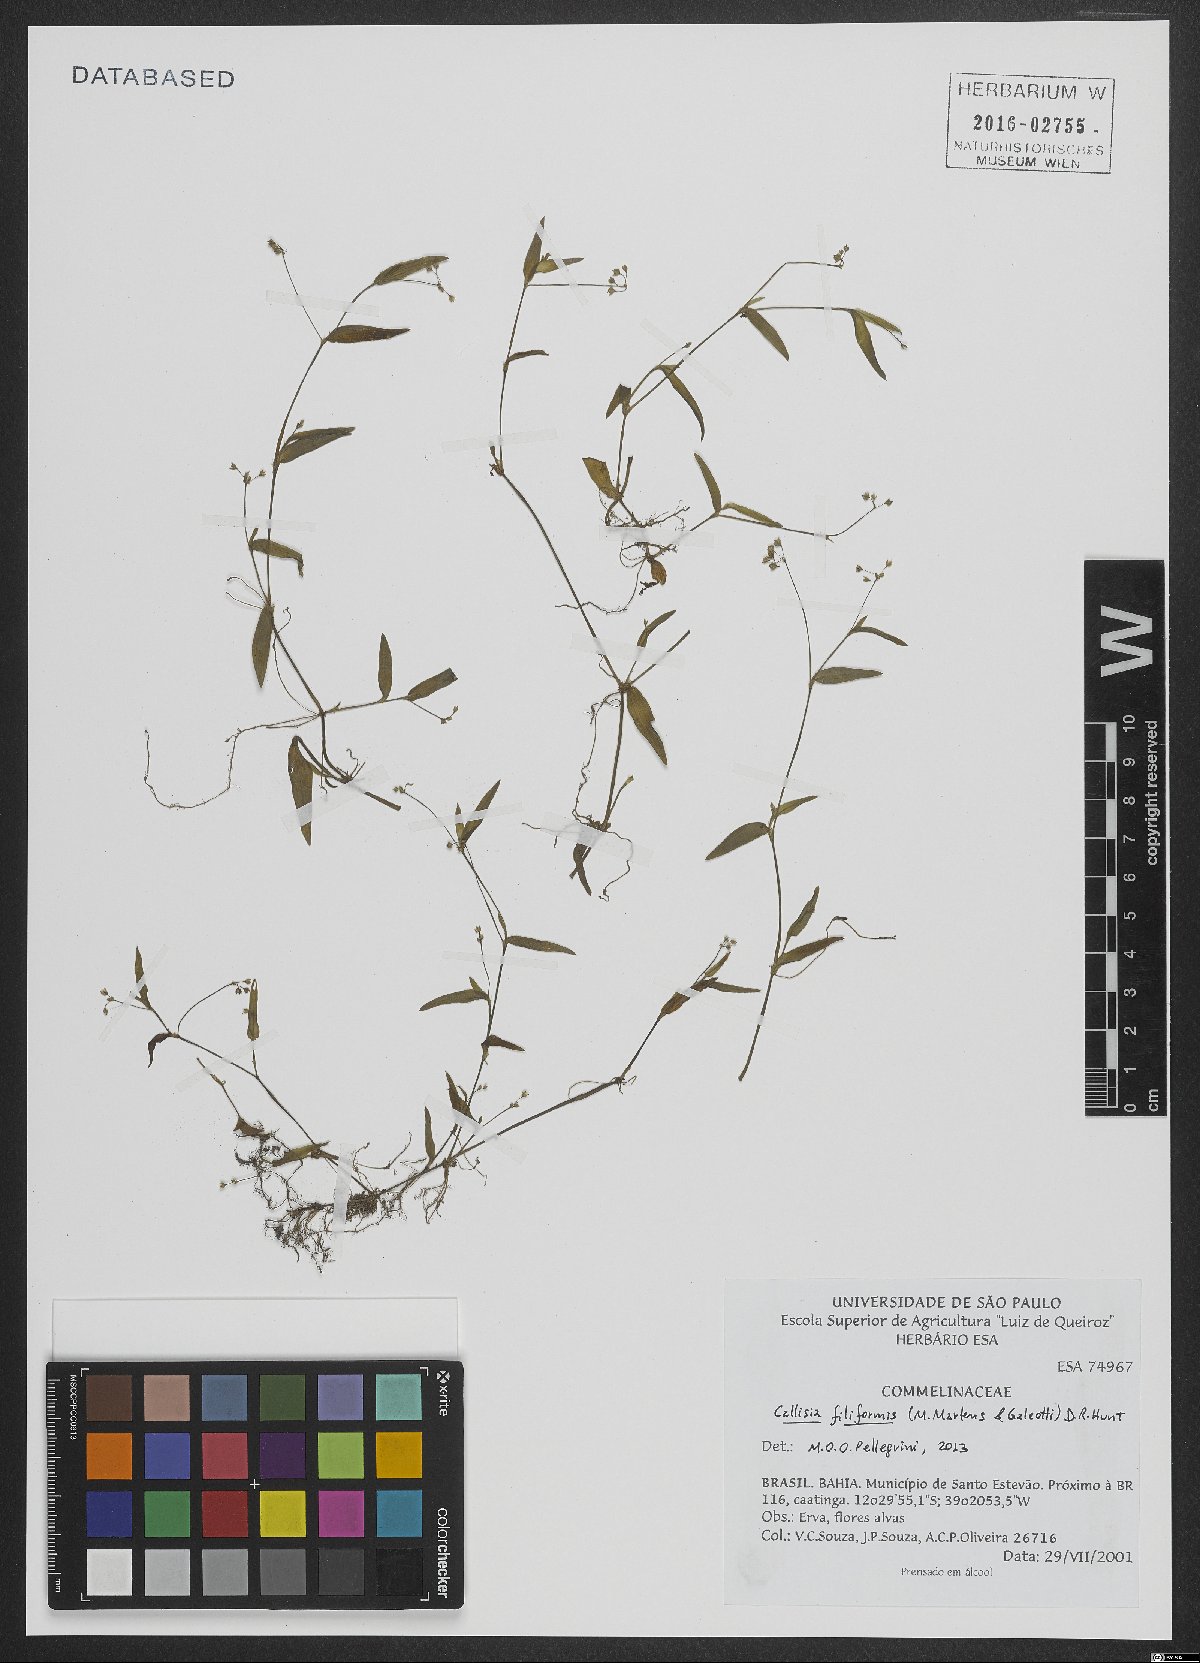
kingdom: Plantae
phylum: Tracheophyta
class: Liliopsida
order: Commelinales
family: Commelinaceae
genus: Callisia
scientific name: Callisia filiformis
